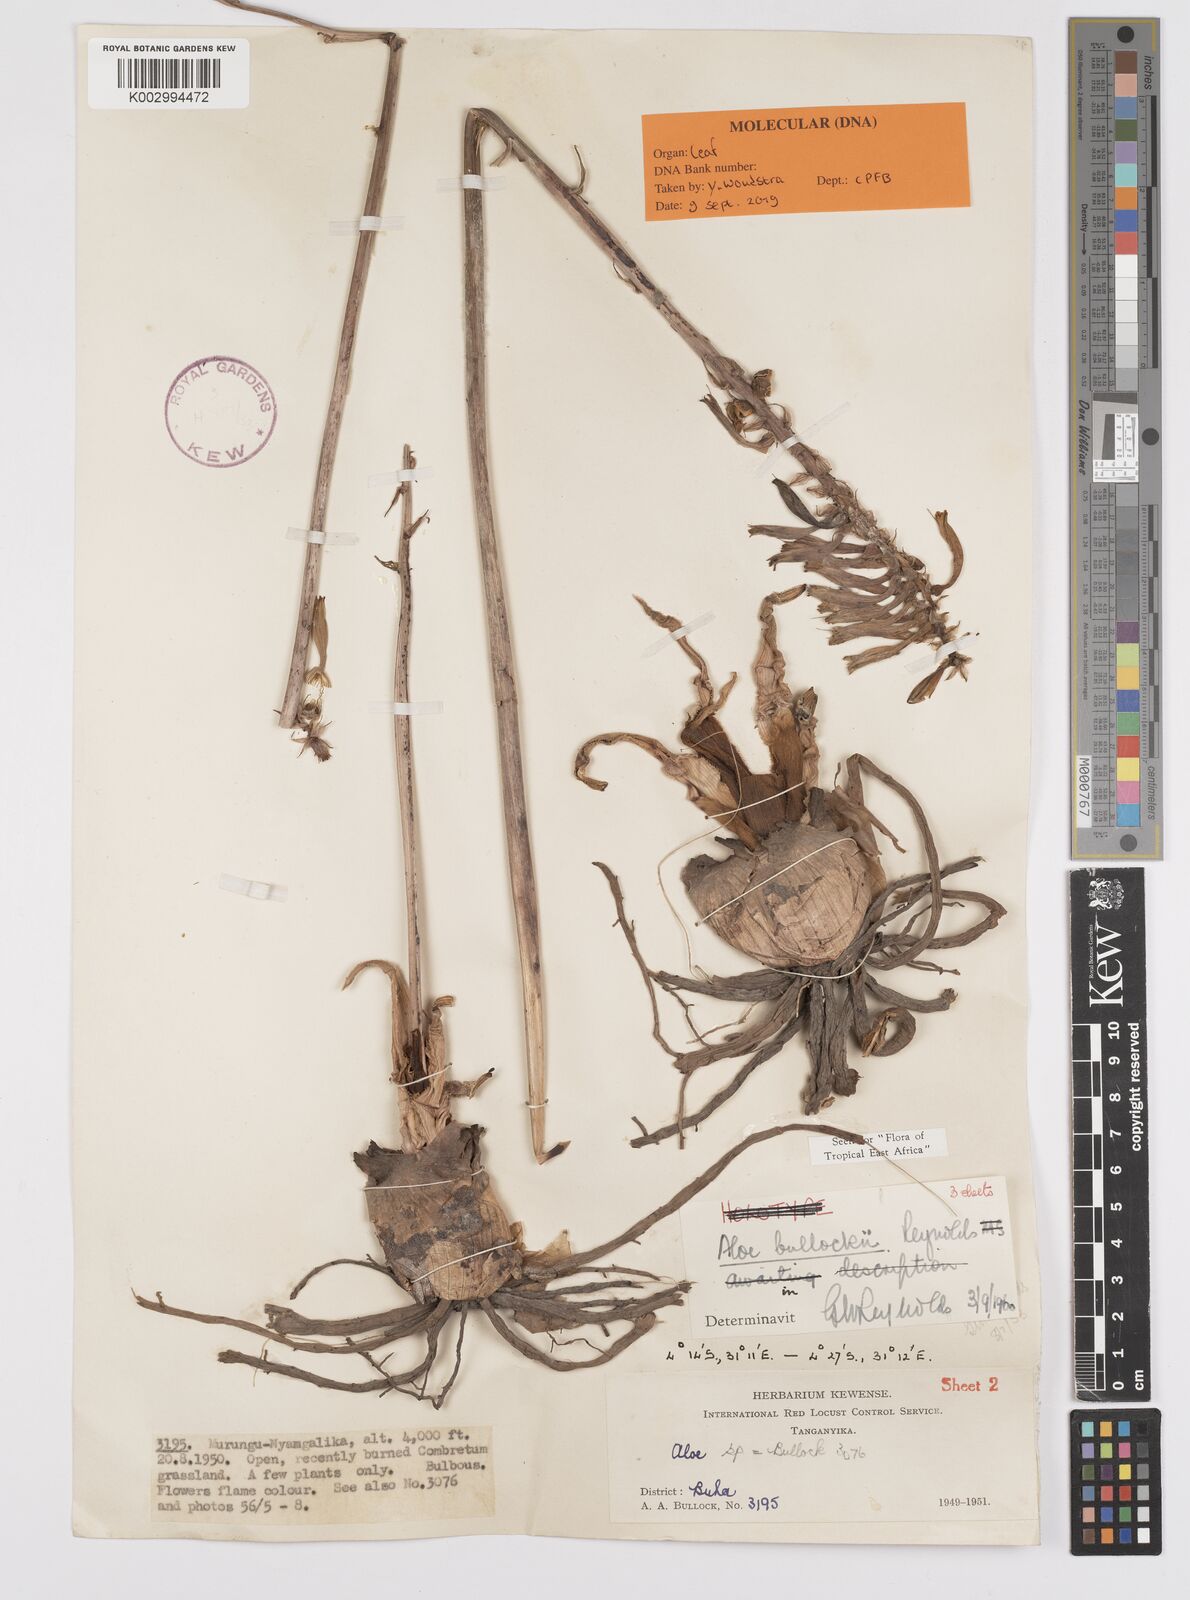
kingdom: Plantae
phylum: Tracheophyta
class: Liliopsida
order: Asparagales
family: Asphodelaceae
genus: Aloe
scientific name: Aloe bullockii
